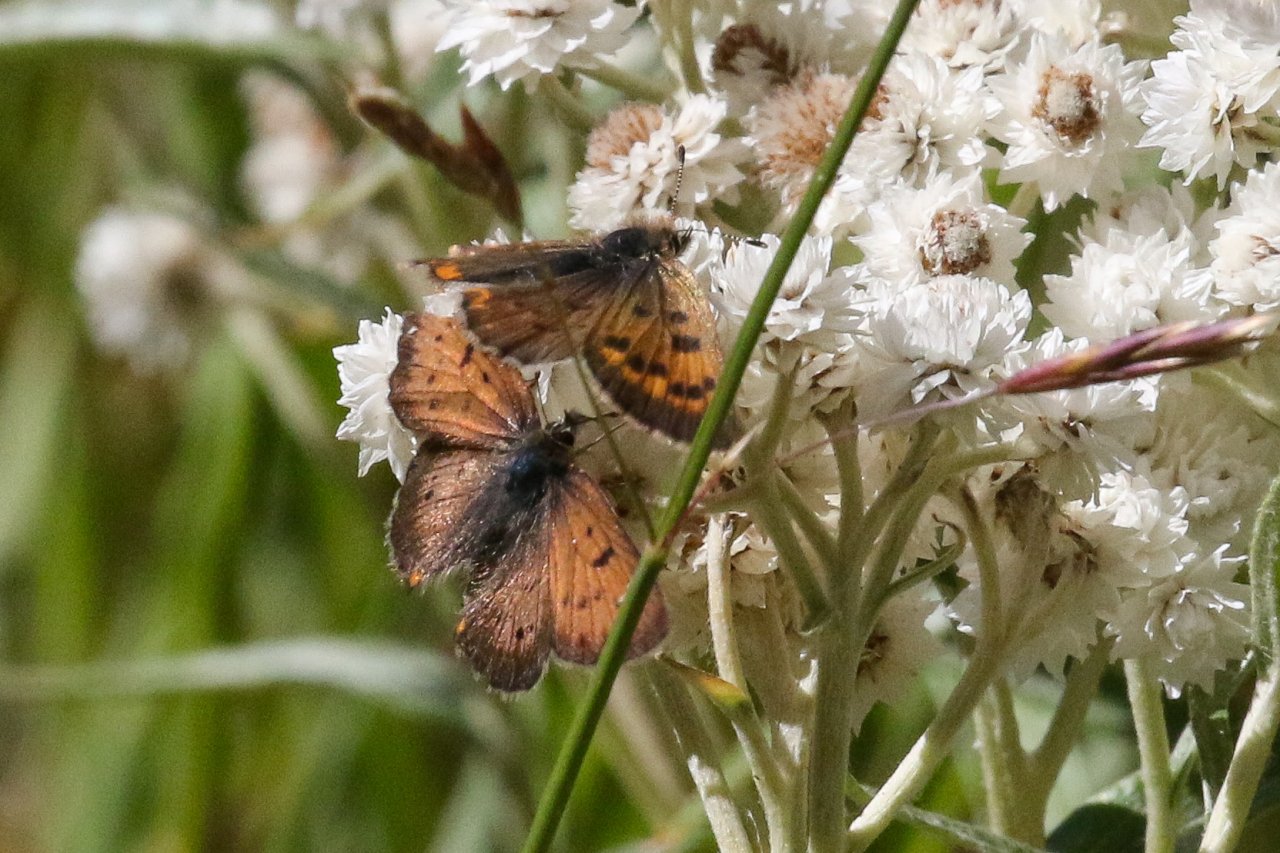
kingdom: Animalia
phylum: Arthropoda
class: Insecta
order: Lepidoptera
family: Sesiidae
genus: Sesia
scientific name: Sesia Lycaena helloides
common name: Purplish Copper
